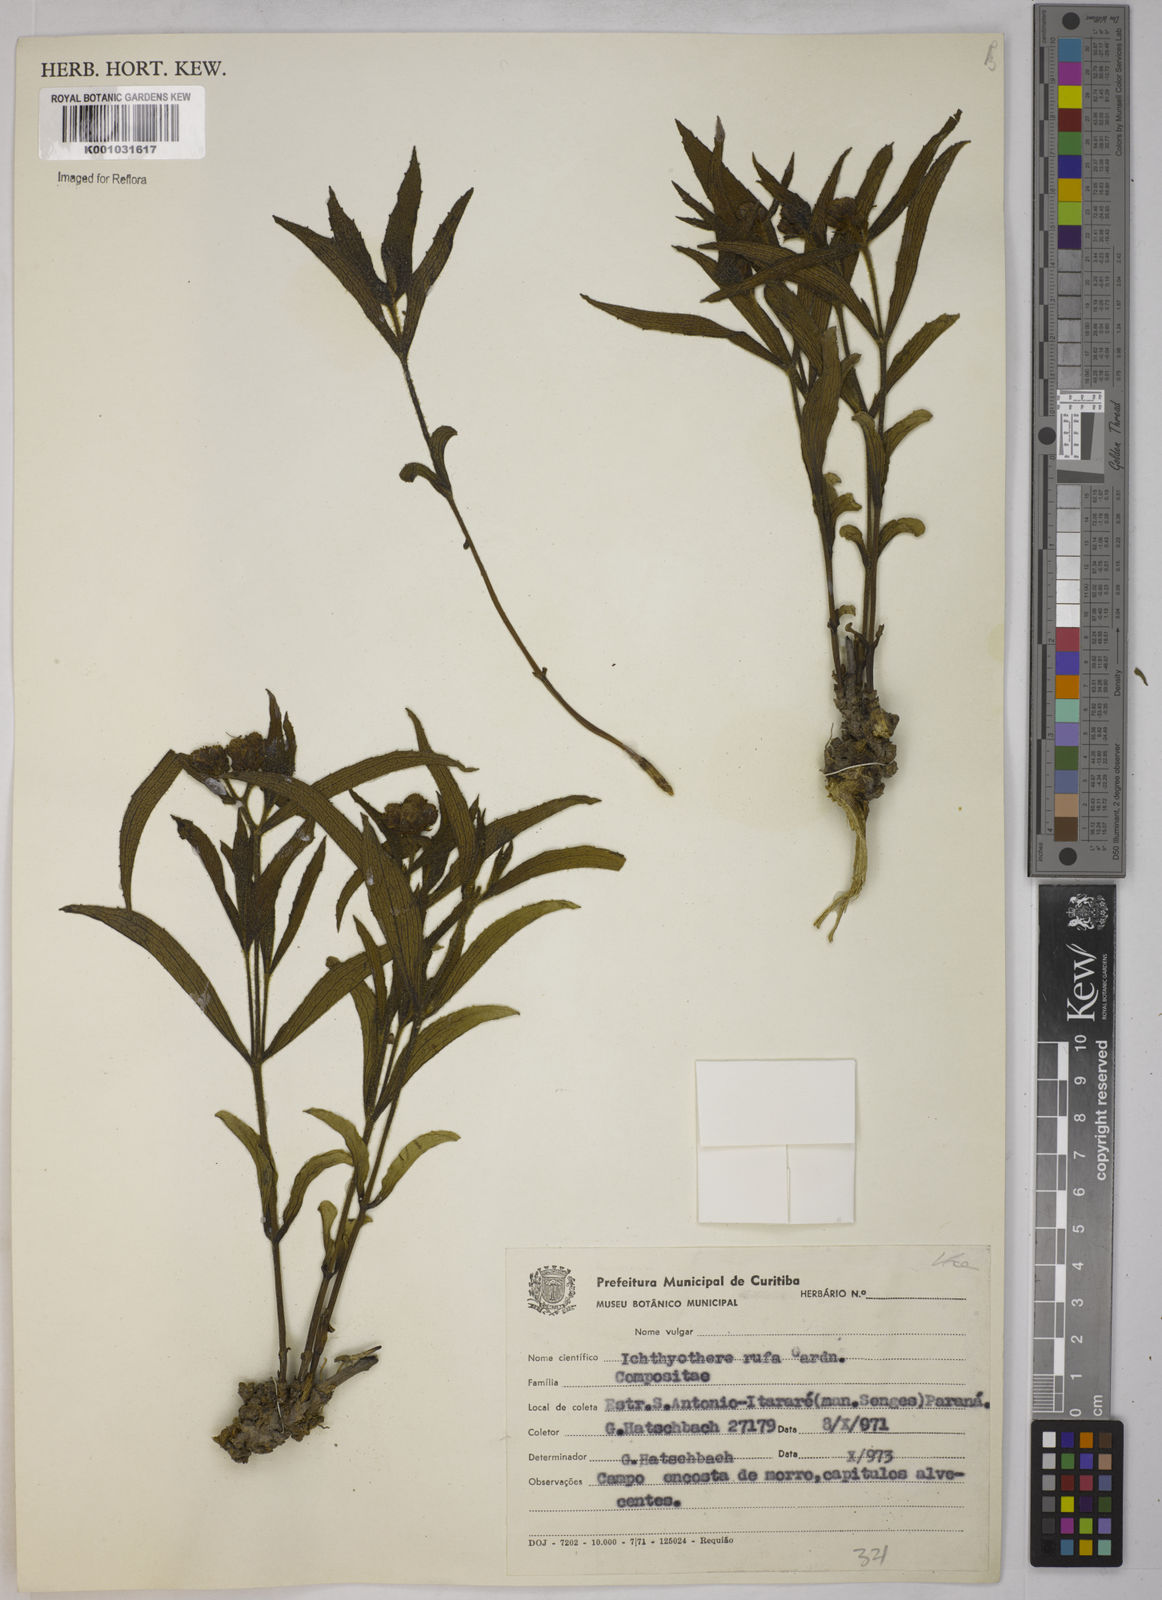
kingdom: Plantae
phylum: Tracheophyta
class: Magnoliopsida
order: Asterales
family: Asteraceae
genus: Ichthyothere
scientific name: Ichthyothere rufa
